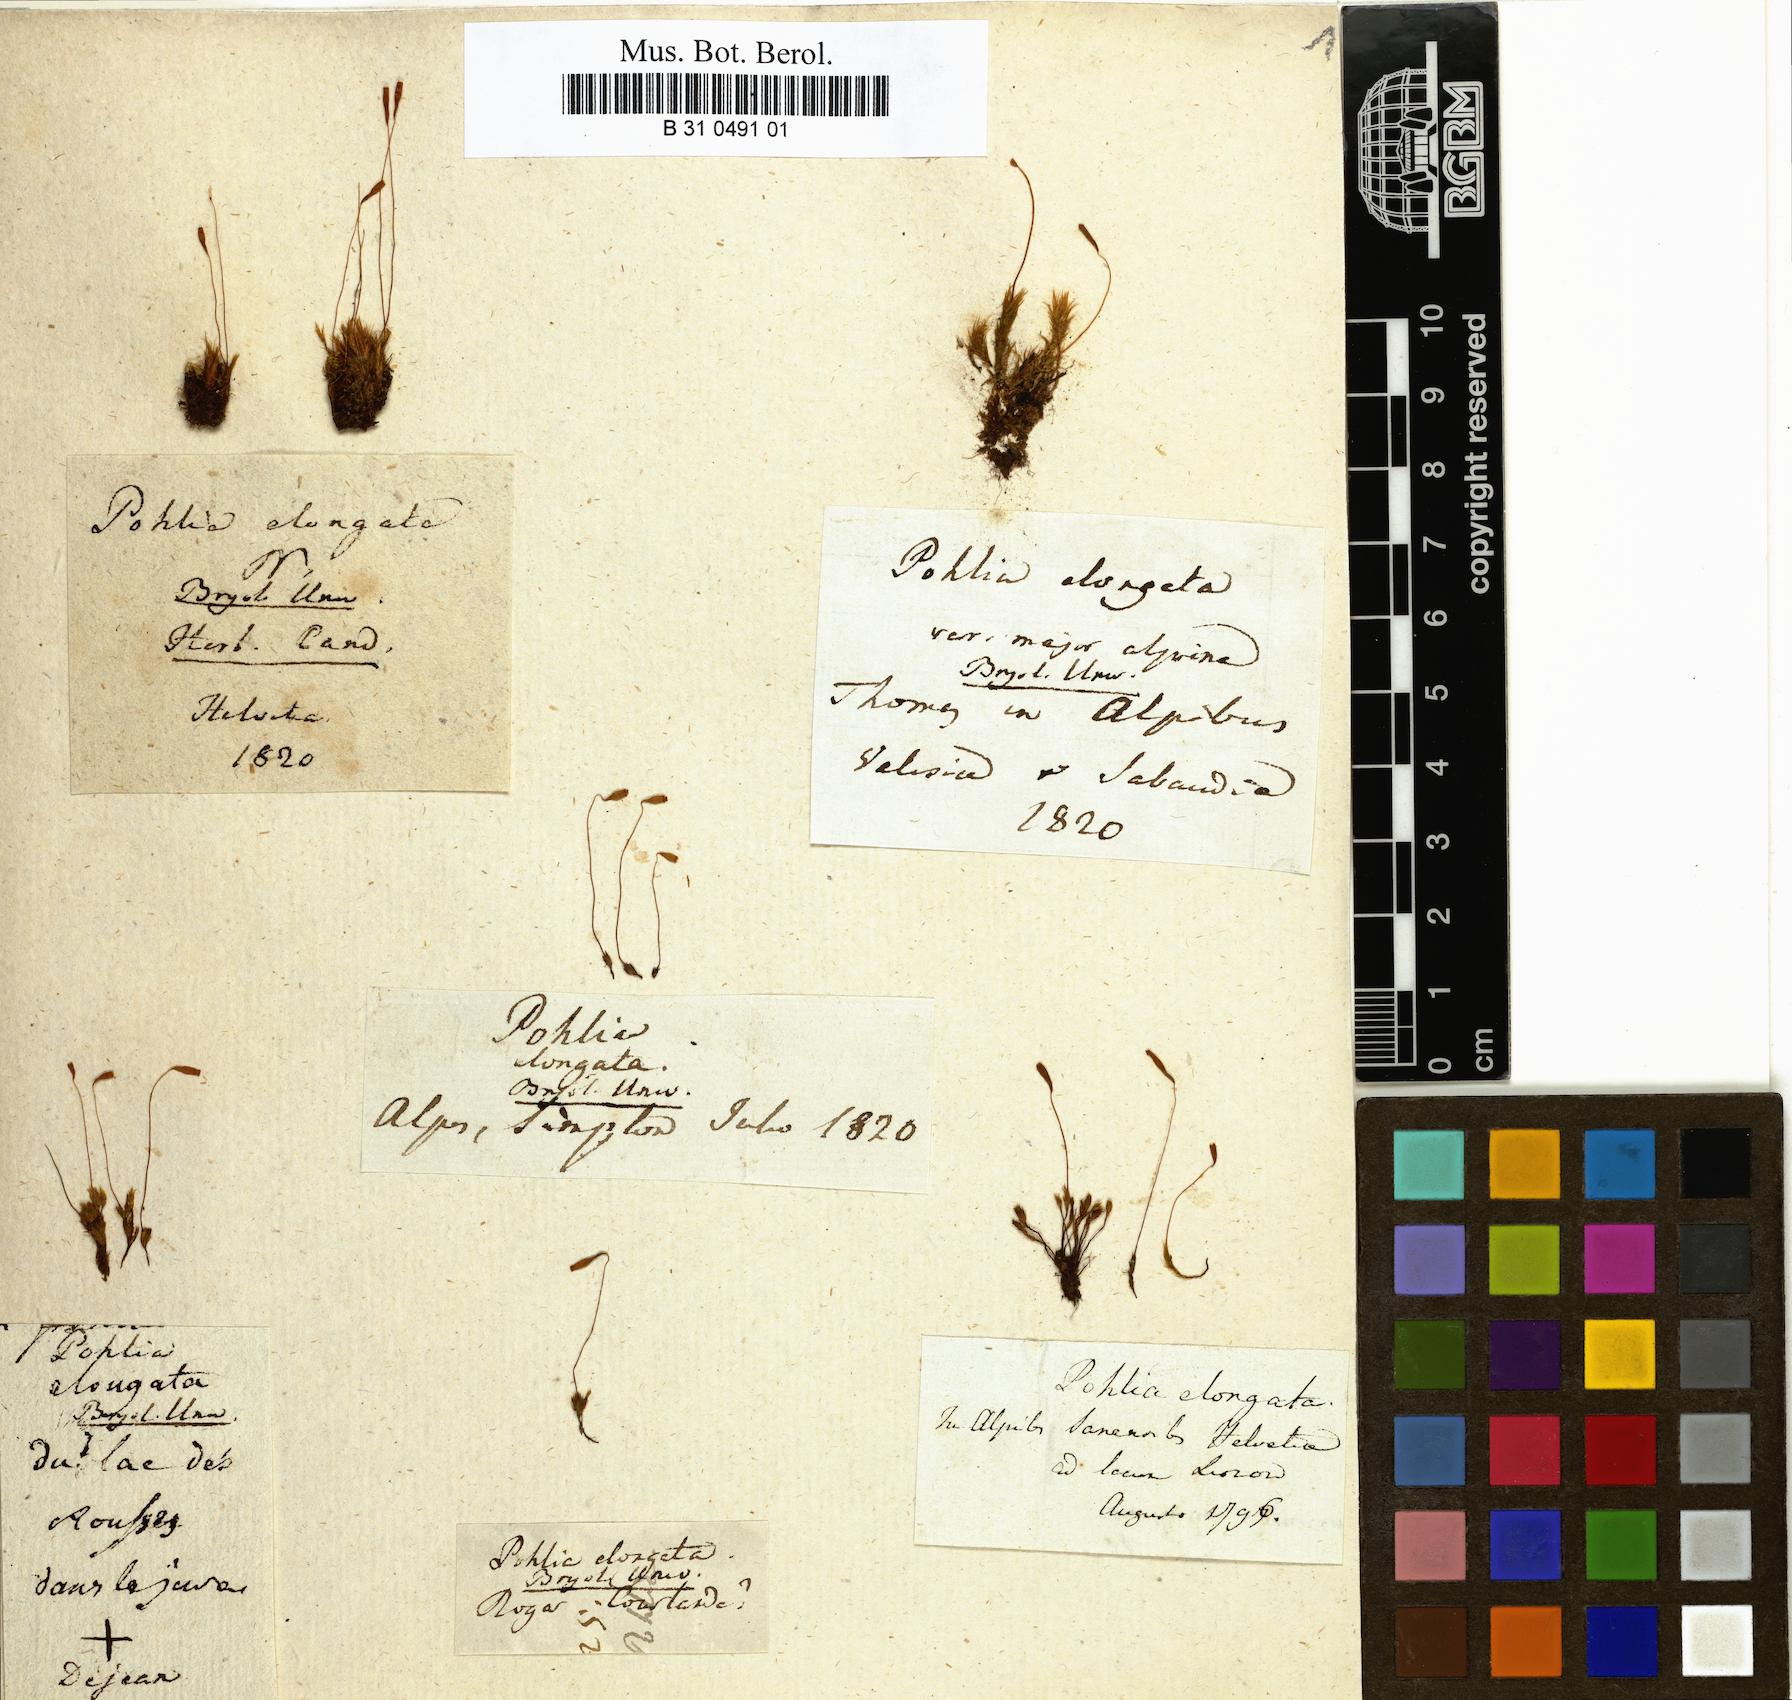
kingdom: Plantae
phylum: Bryophyta
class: Bryopsida
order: Bryales
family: Mniaceae
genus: Pohlia
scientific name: Pohlia elongata
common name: Long-fruited thread-moss
